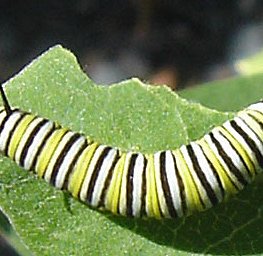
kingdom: Animalia
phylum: Arthropoda
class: Insecta
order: Lepidoptera
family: Nymphalidae
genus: Danaus
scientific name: Danaus plexippus
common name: Monarch
